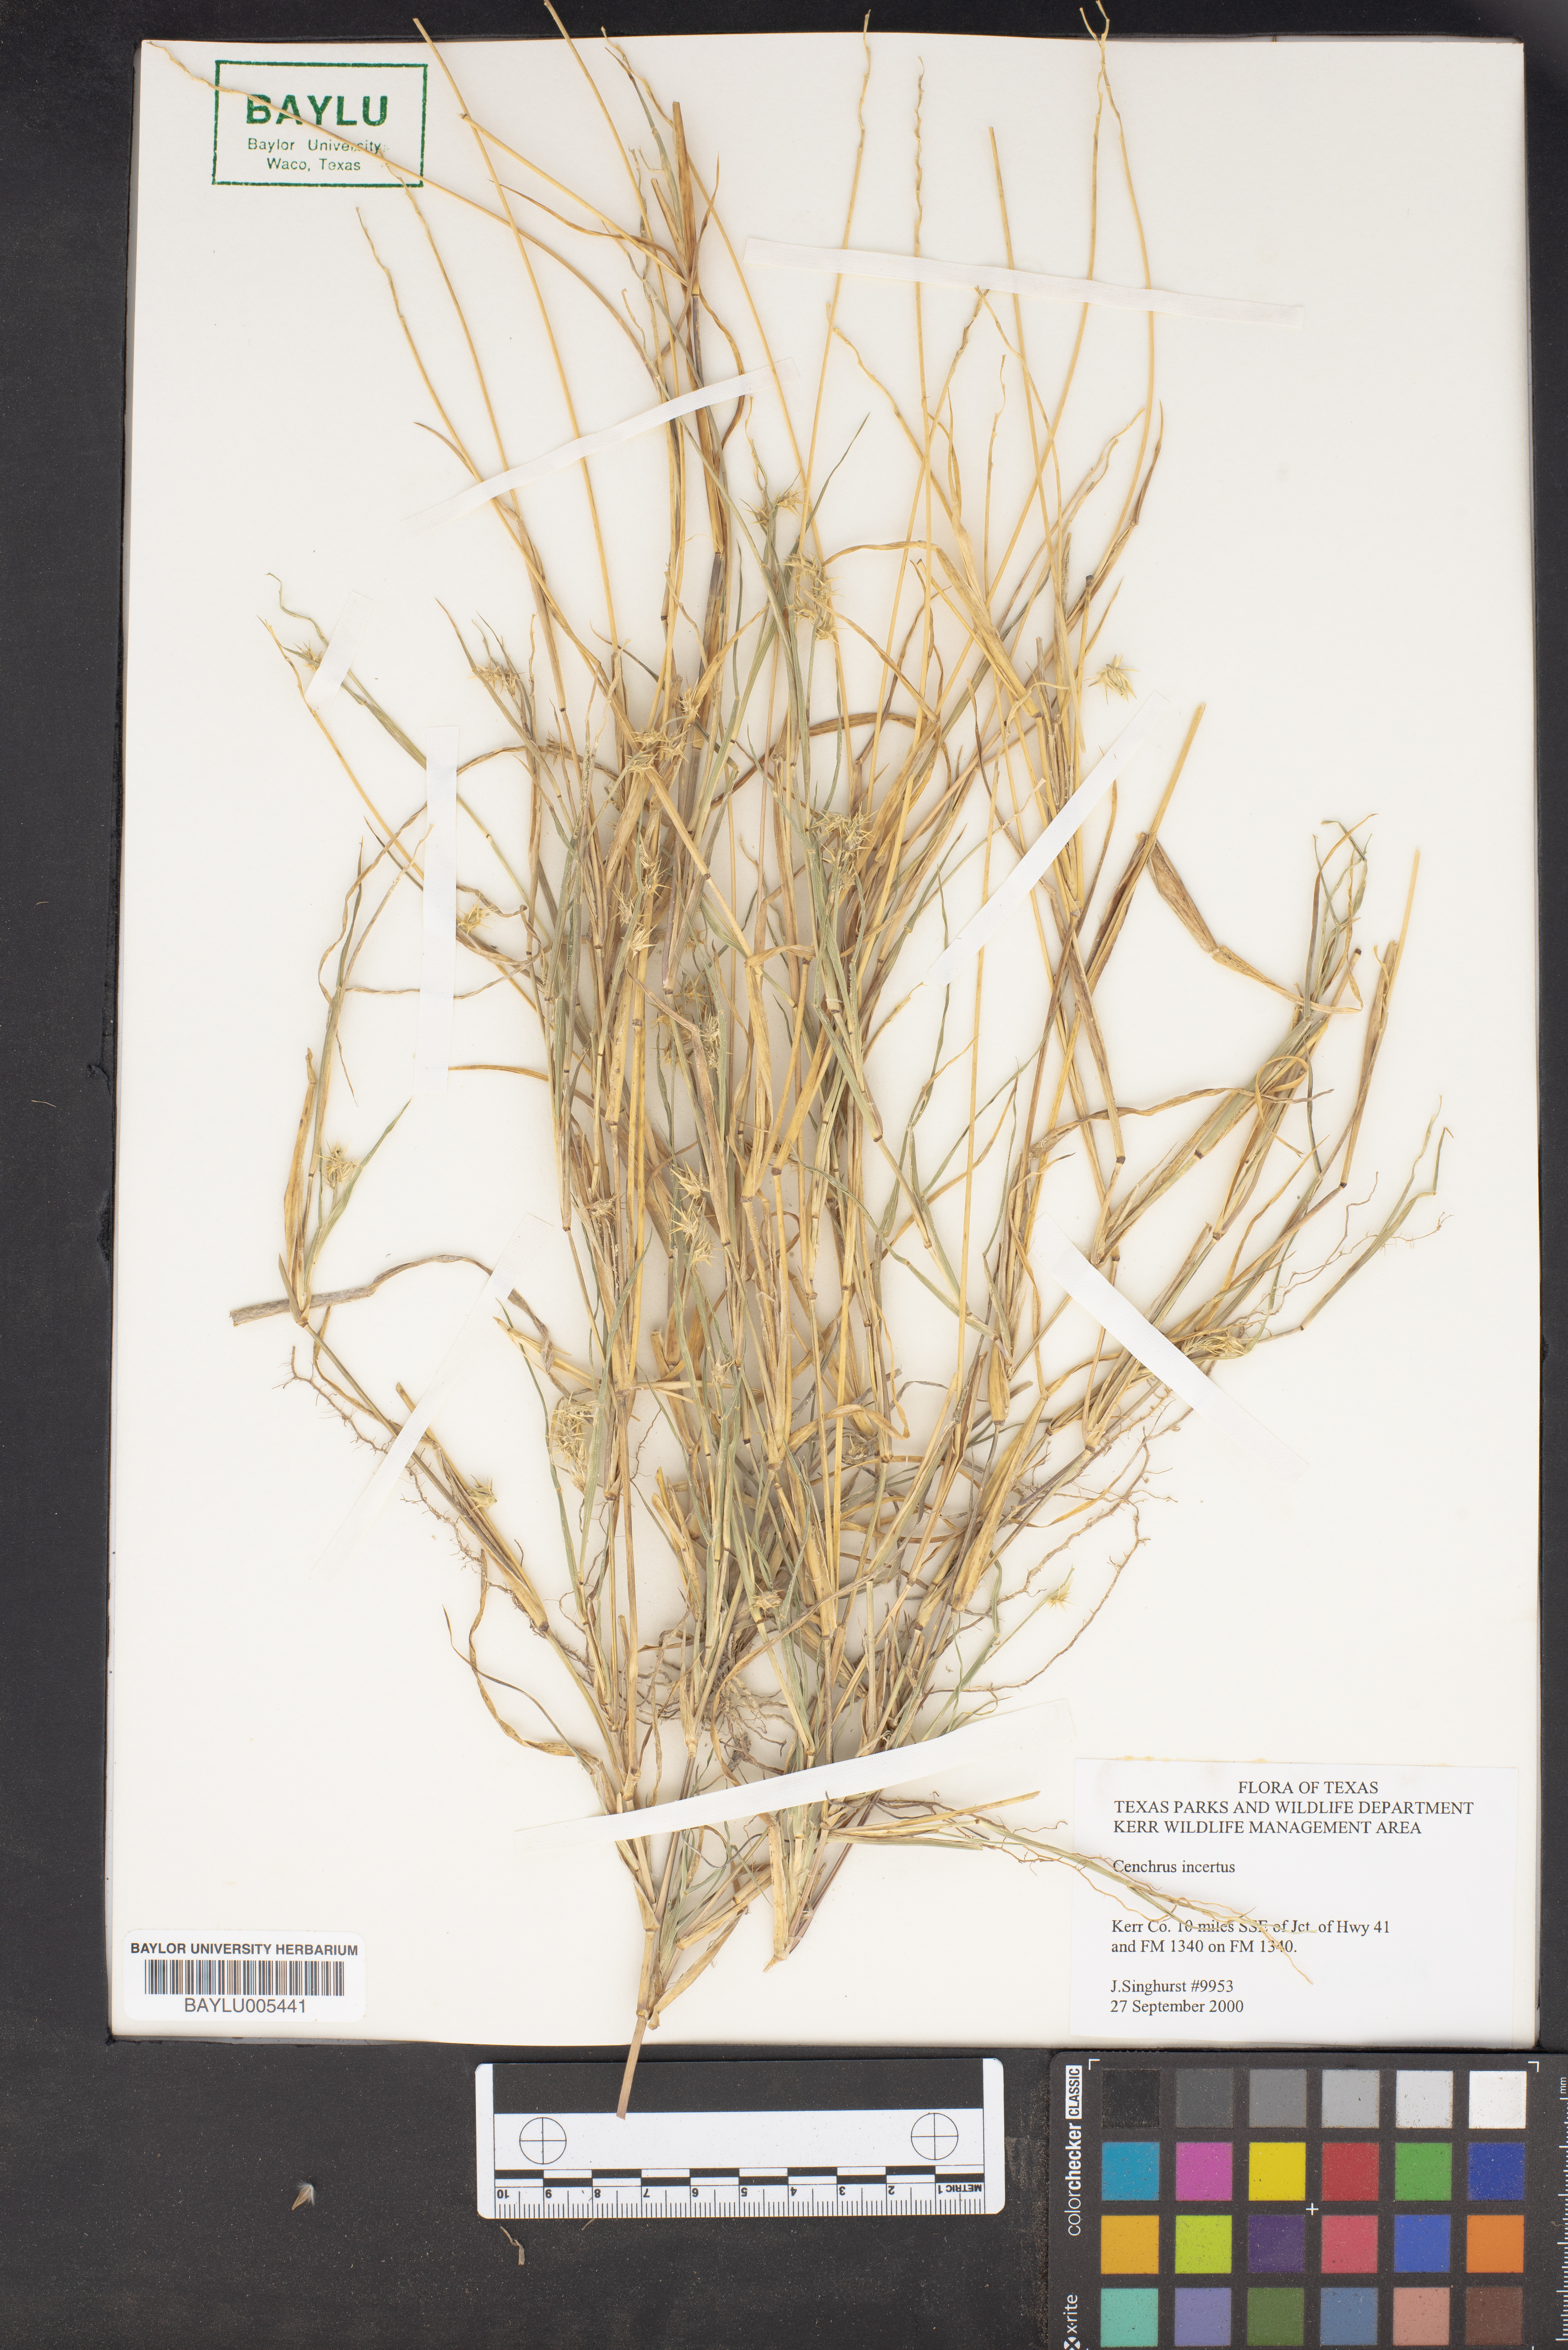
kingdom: Plantae
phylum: Tracheophyta
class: Liliopsida
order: Poales
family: Poaceae
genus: Cenchrus
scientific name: Cenchrus spinifex
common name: Coast sandbur
